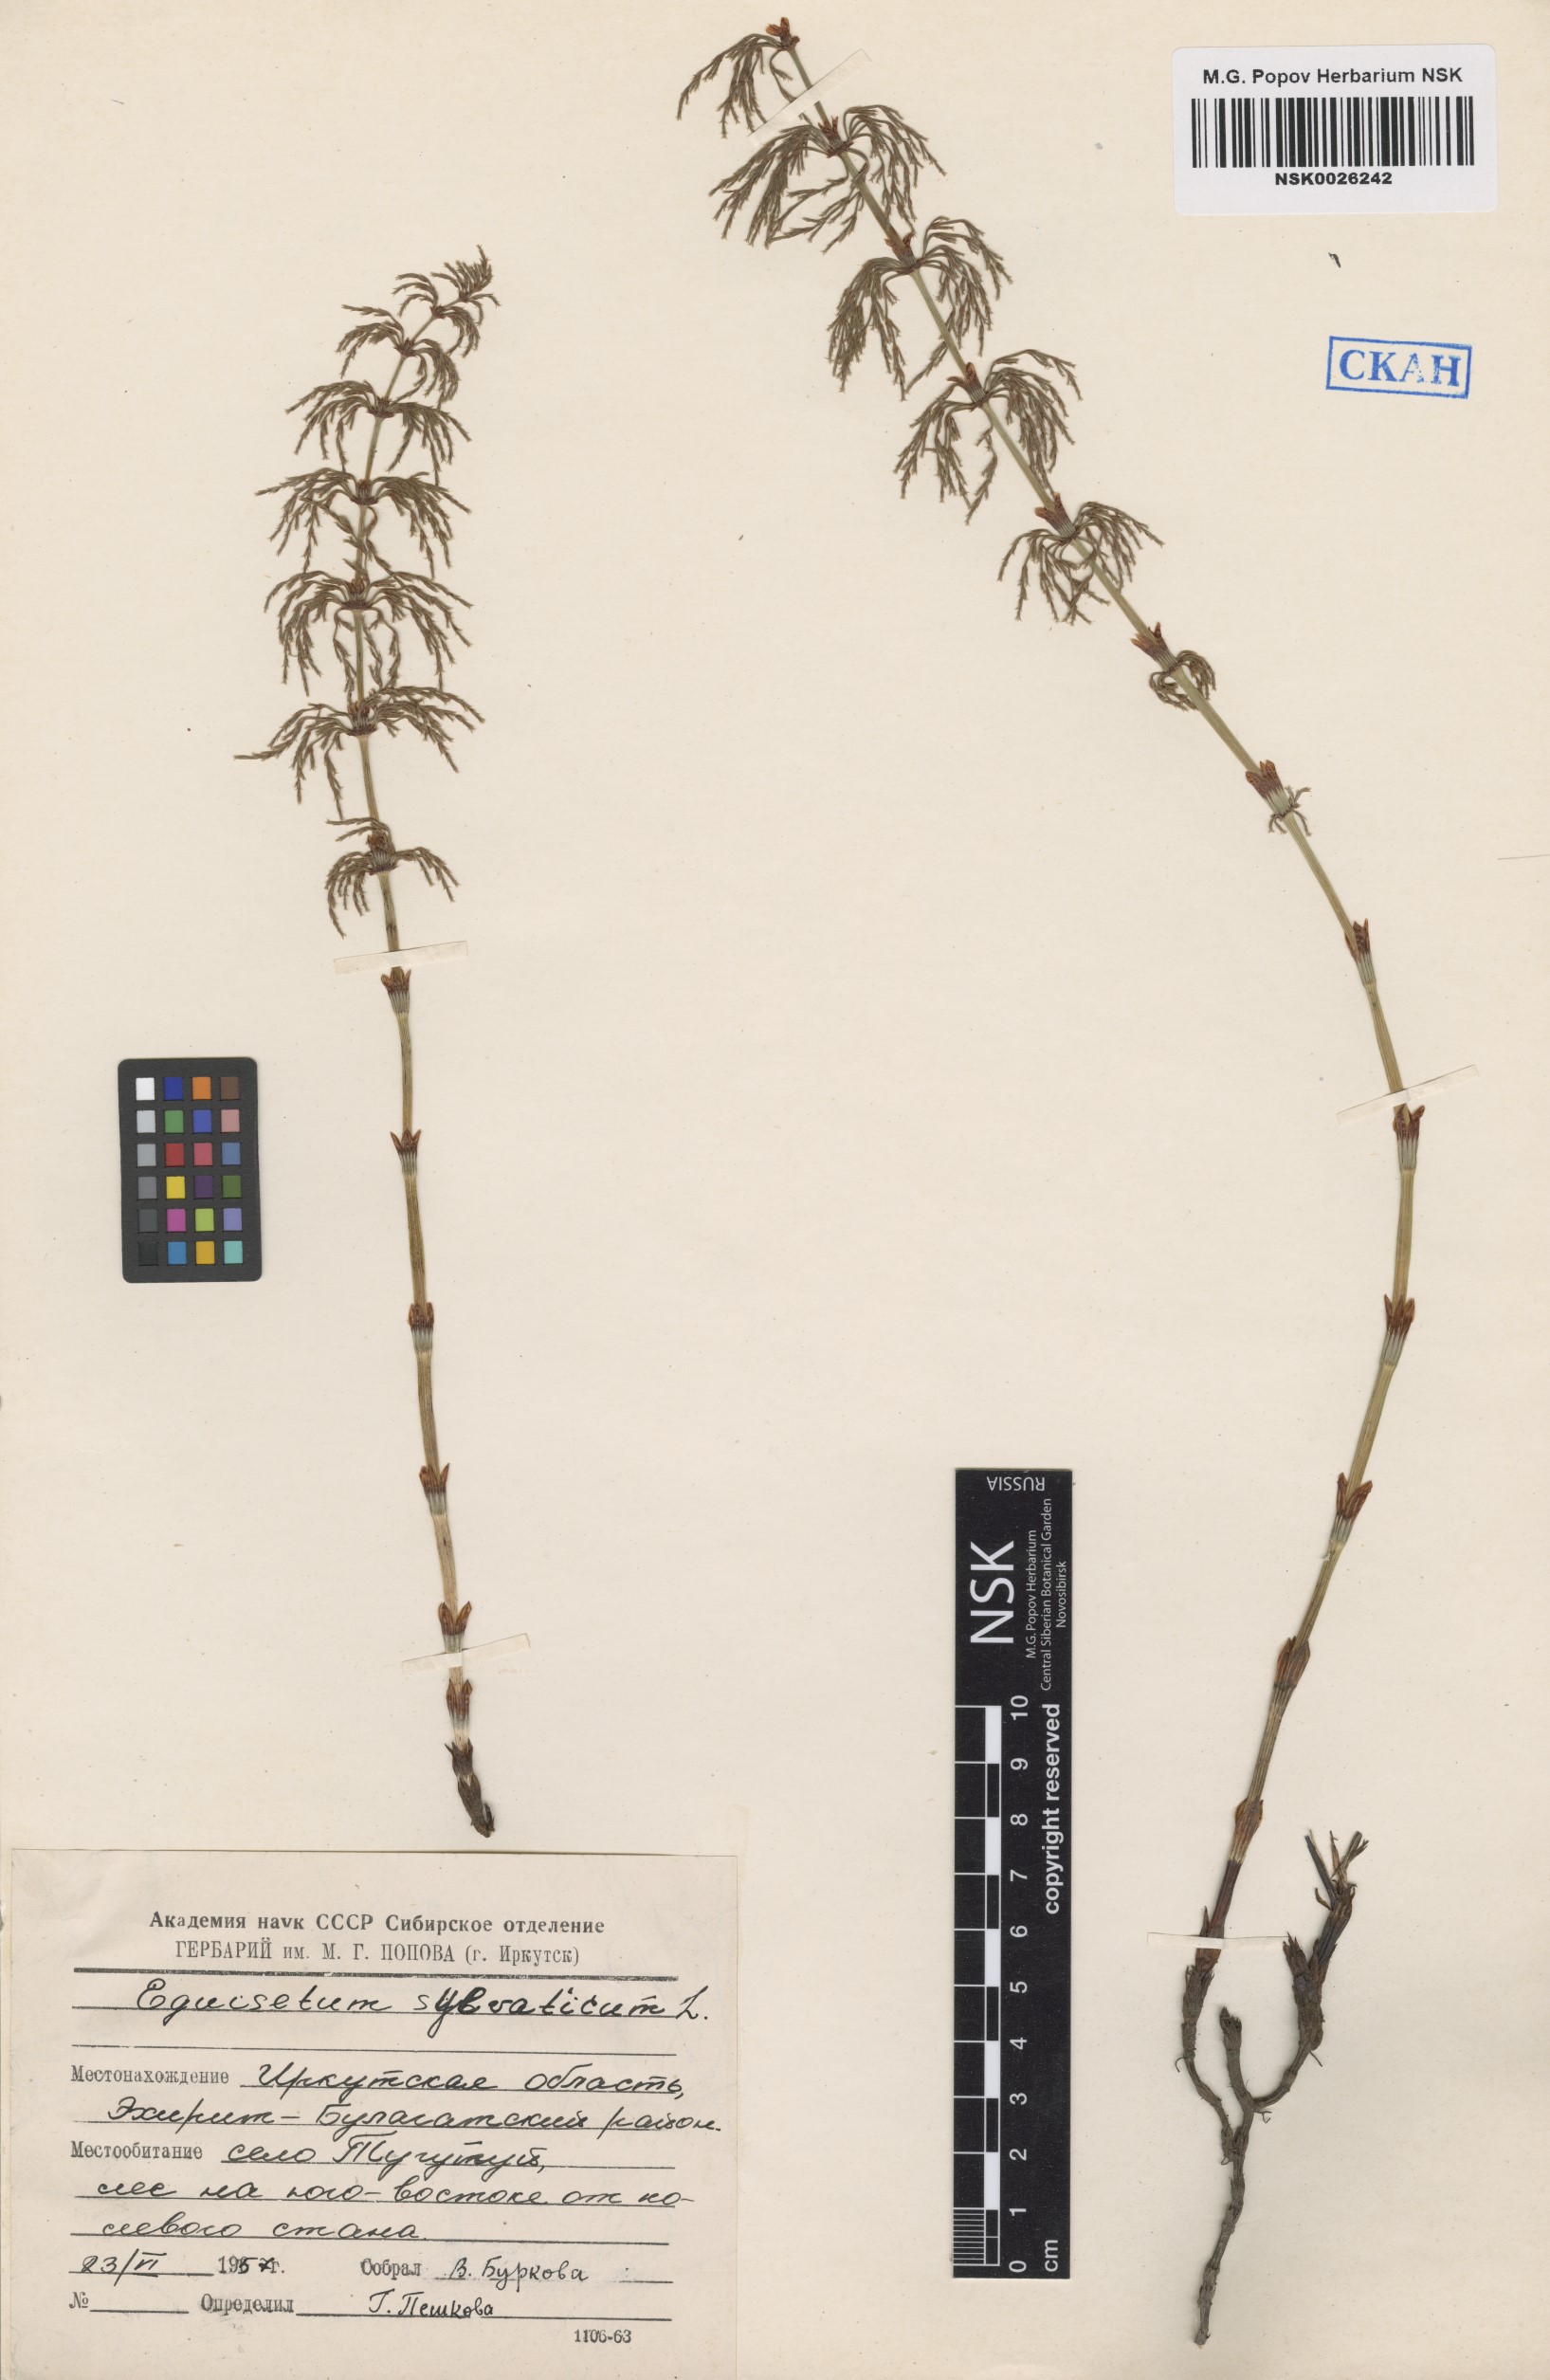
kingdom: Plantae
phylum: Tracheophyta
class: Polypodiopsida
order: Equisetales
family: Equisetaceae
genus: Equisetum
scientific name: Equisetum sylvaticum
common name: Wood horsetail
